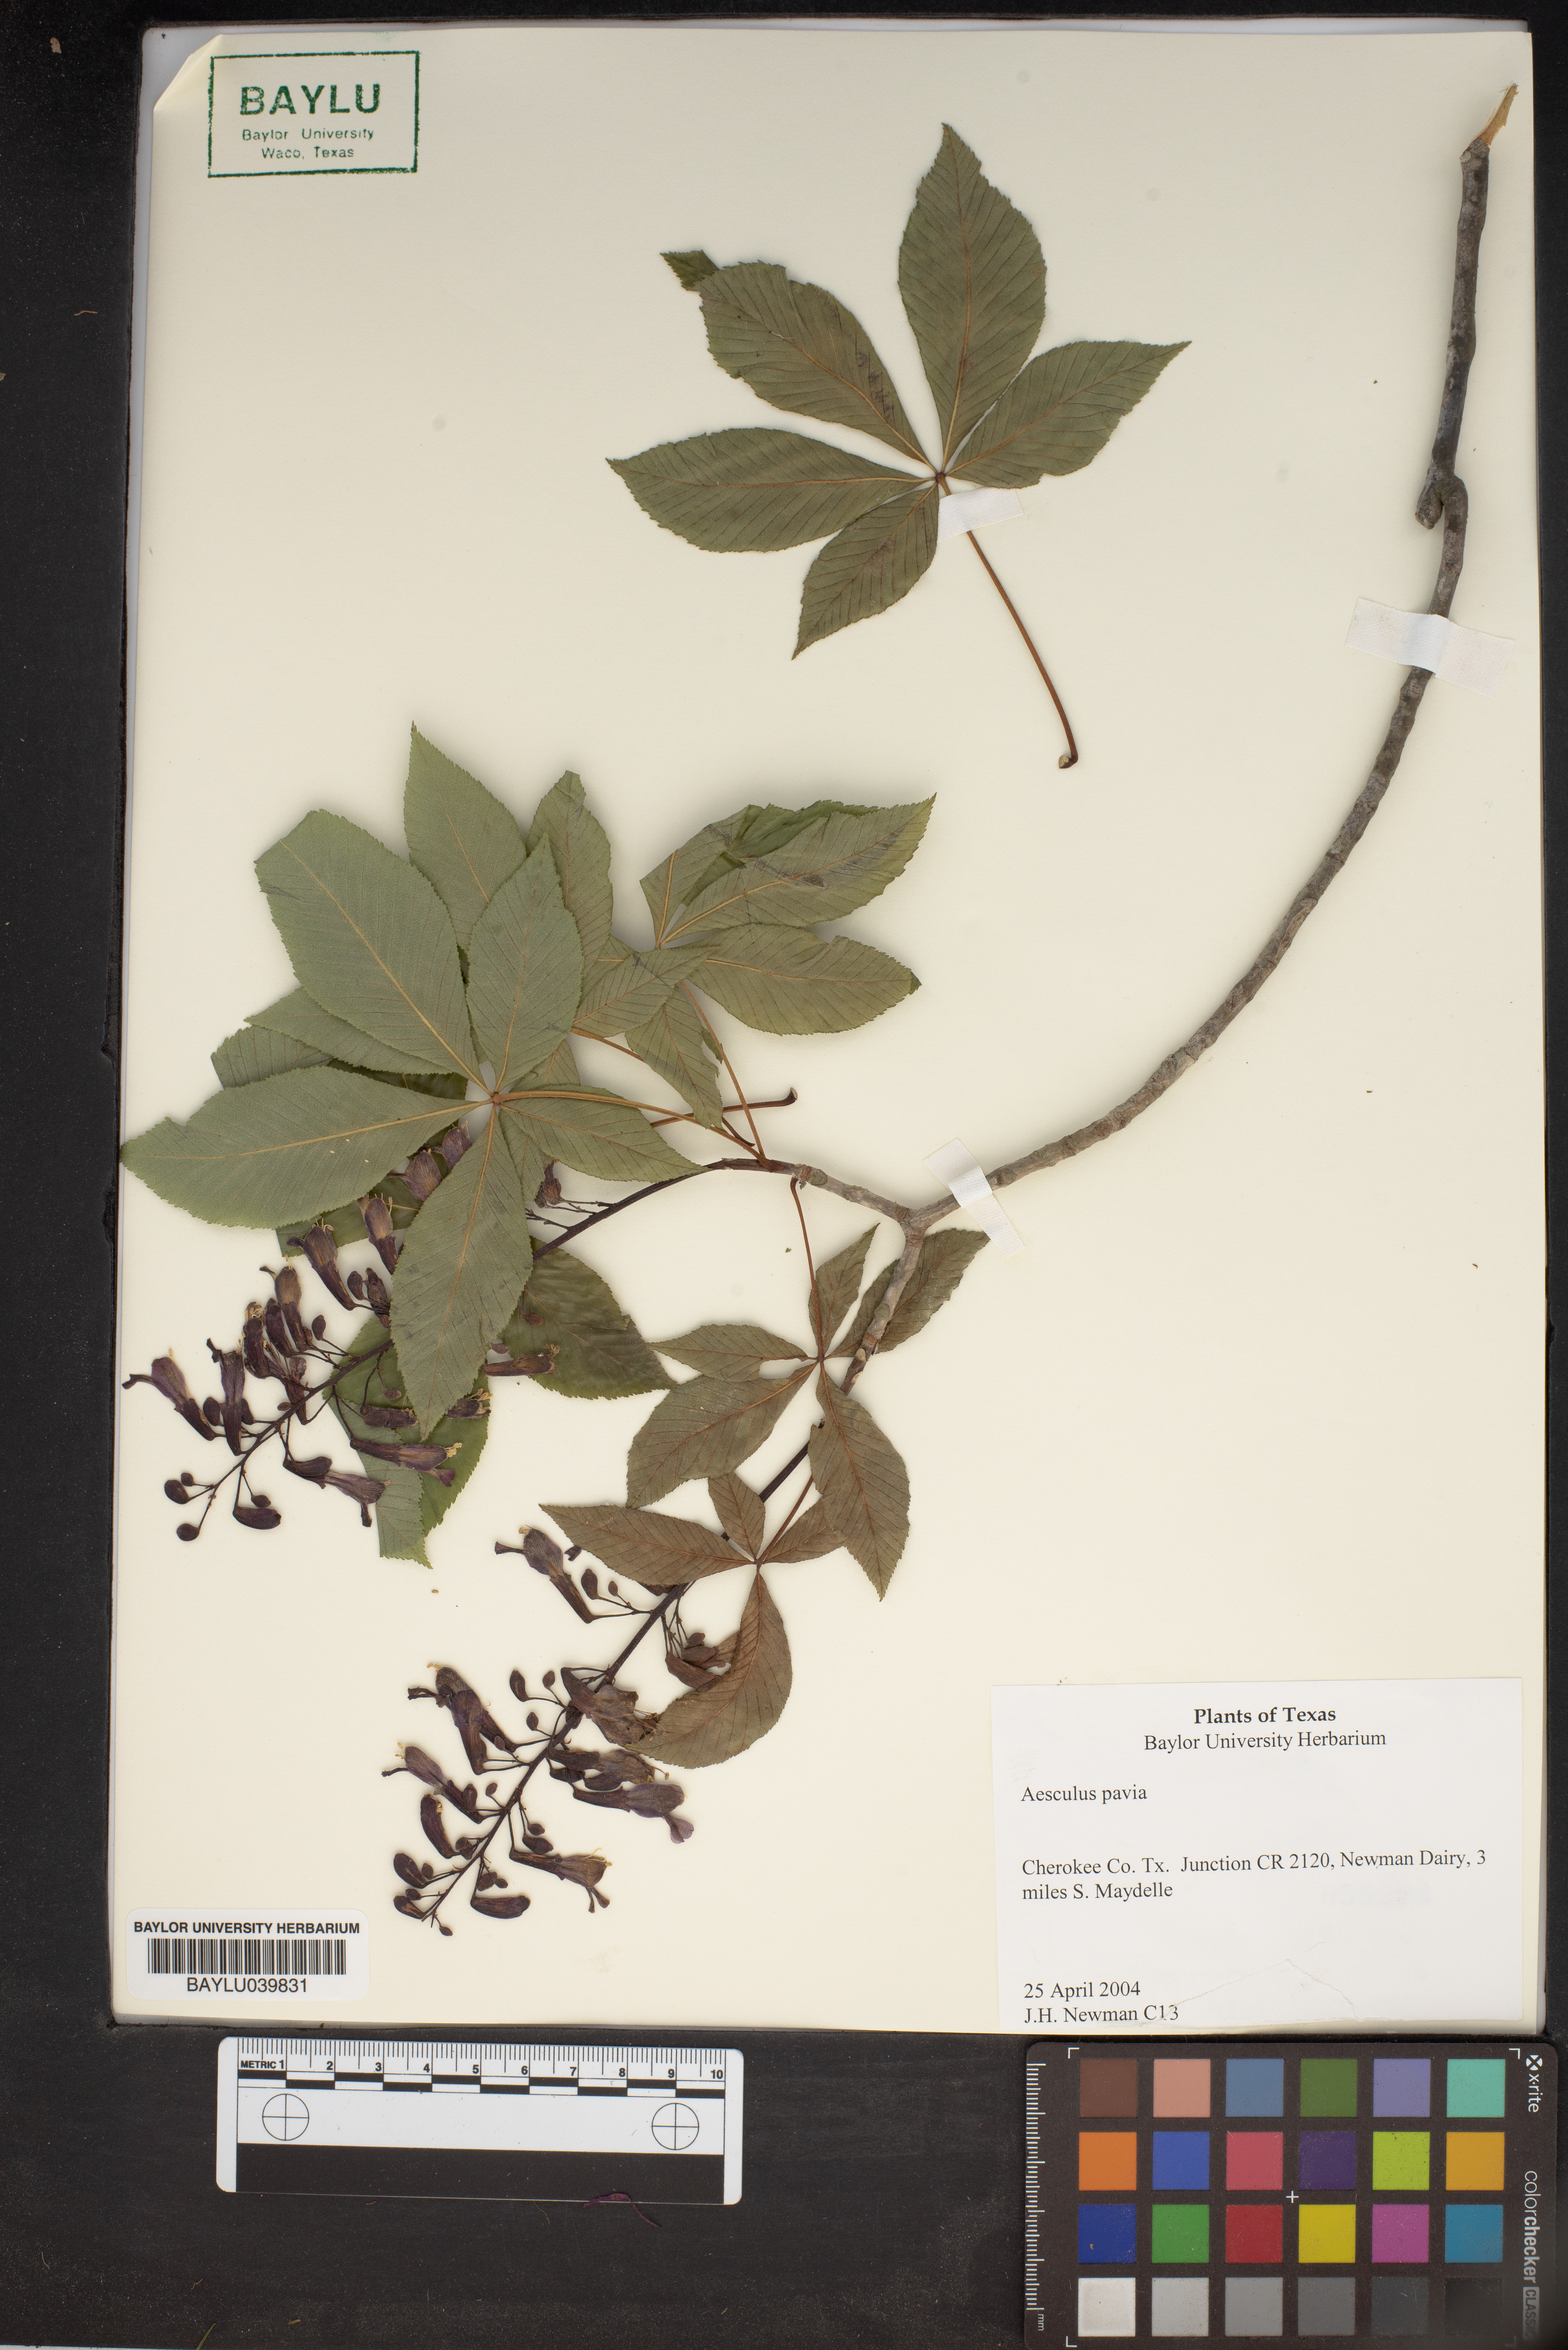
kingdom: Plantae
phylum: Tracheophyta
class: Magnoliopsida
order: Sapindales
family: Sapindaceae
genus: Aesculus
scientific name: Aesculus pavia
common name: Red buckeye
